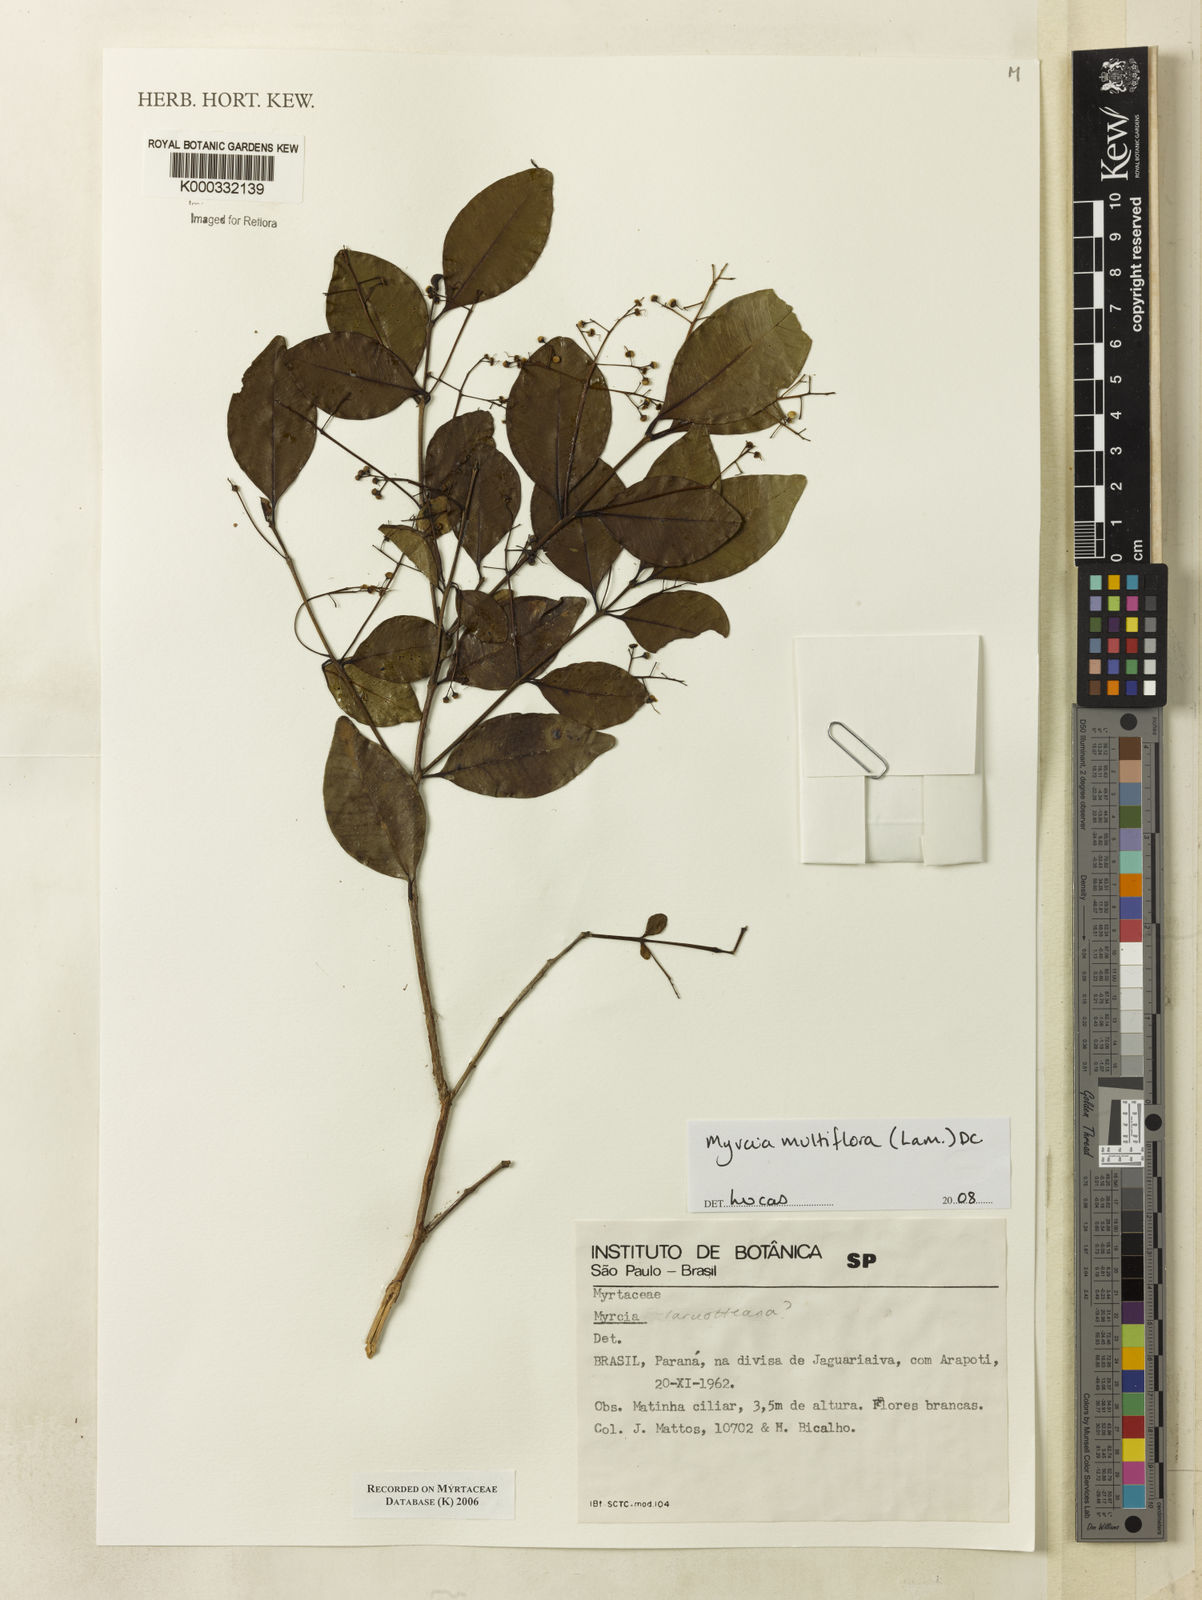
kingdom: Plantae
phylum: Tracheophyta
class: Magnoliopsida
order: Myrtales
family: Myrtaceae
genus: Myrcia
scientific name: Myrcia
